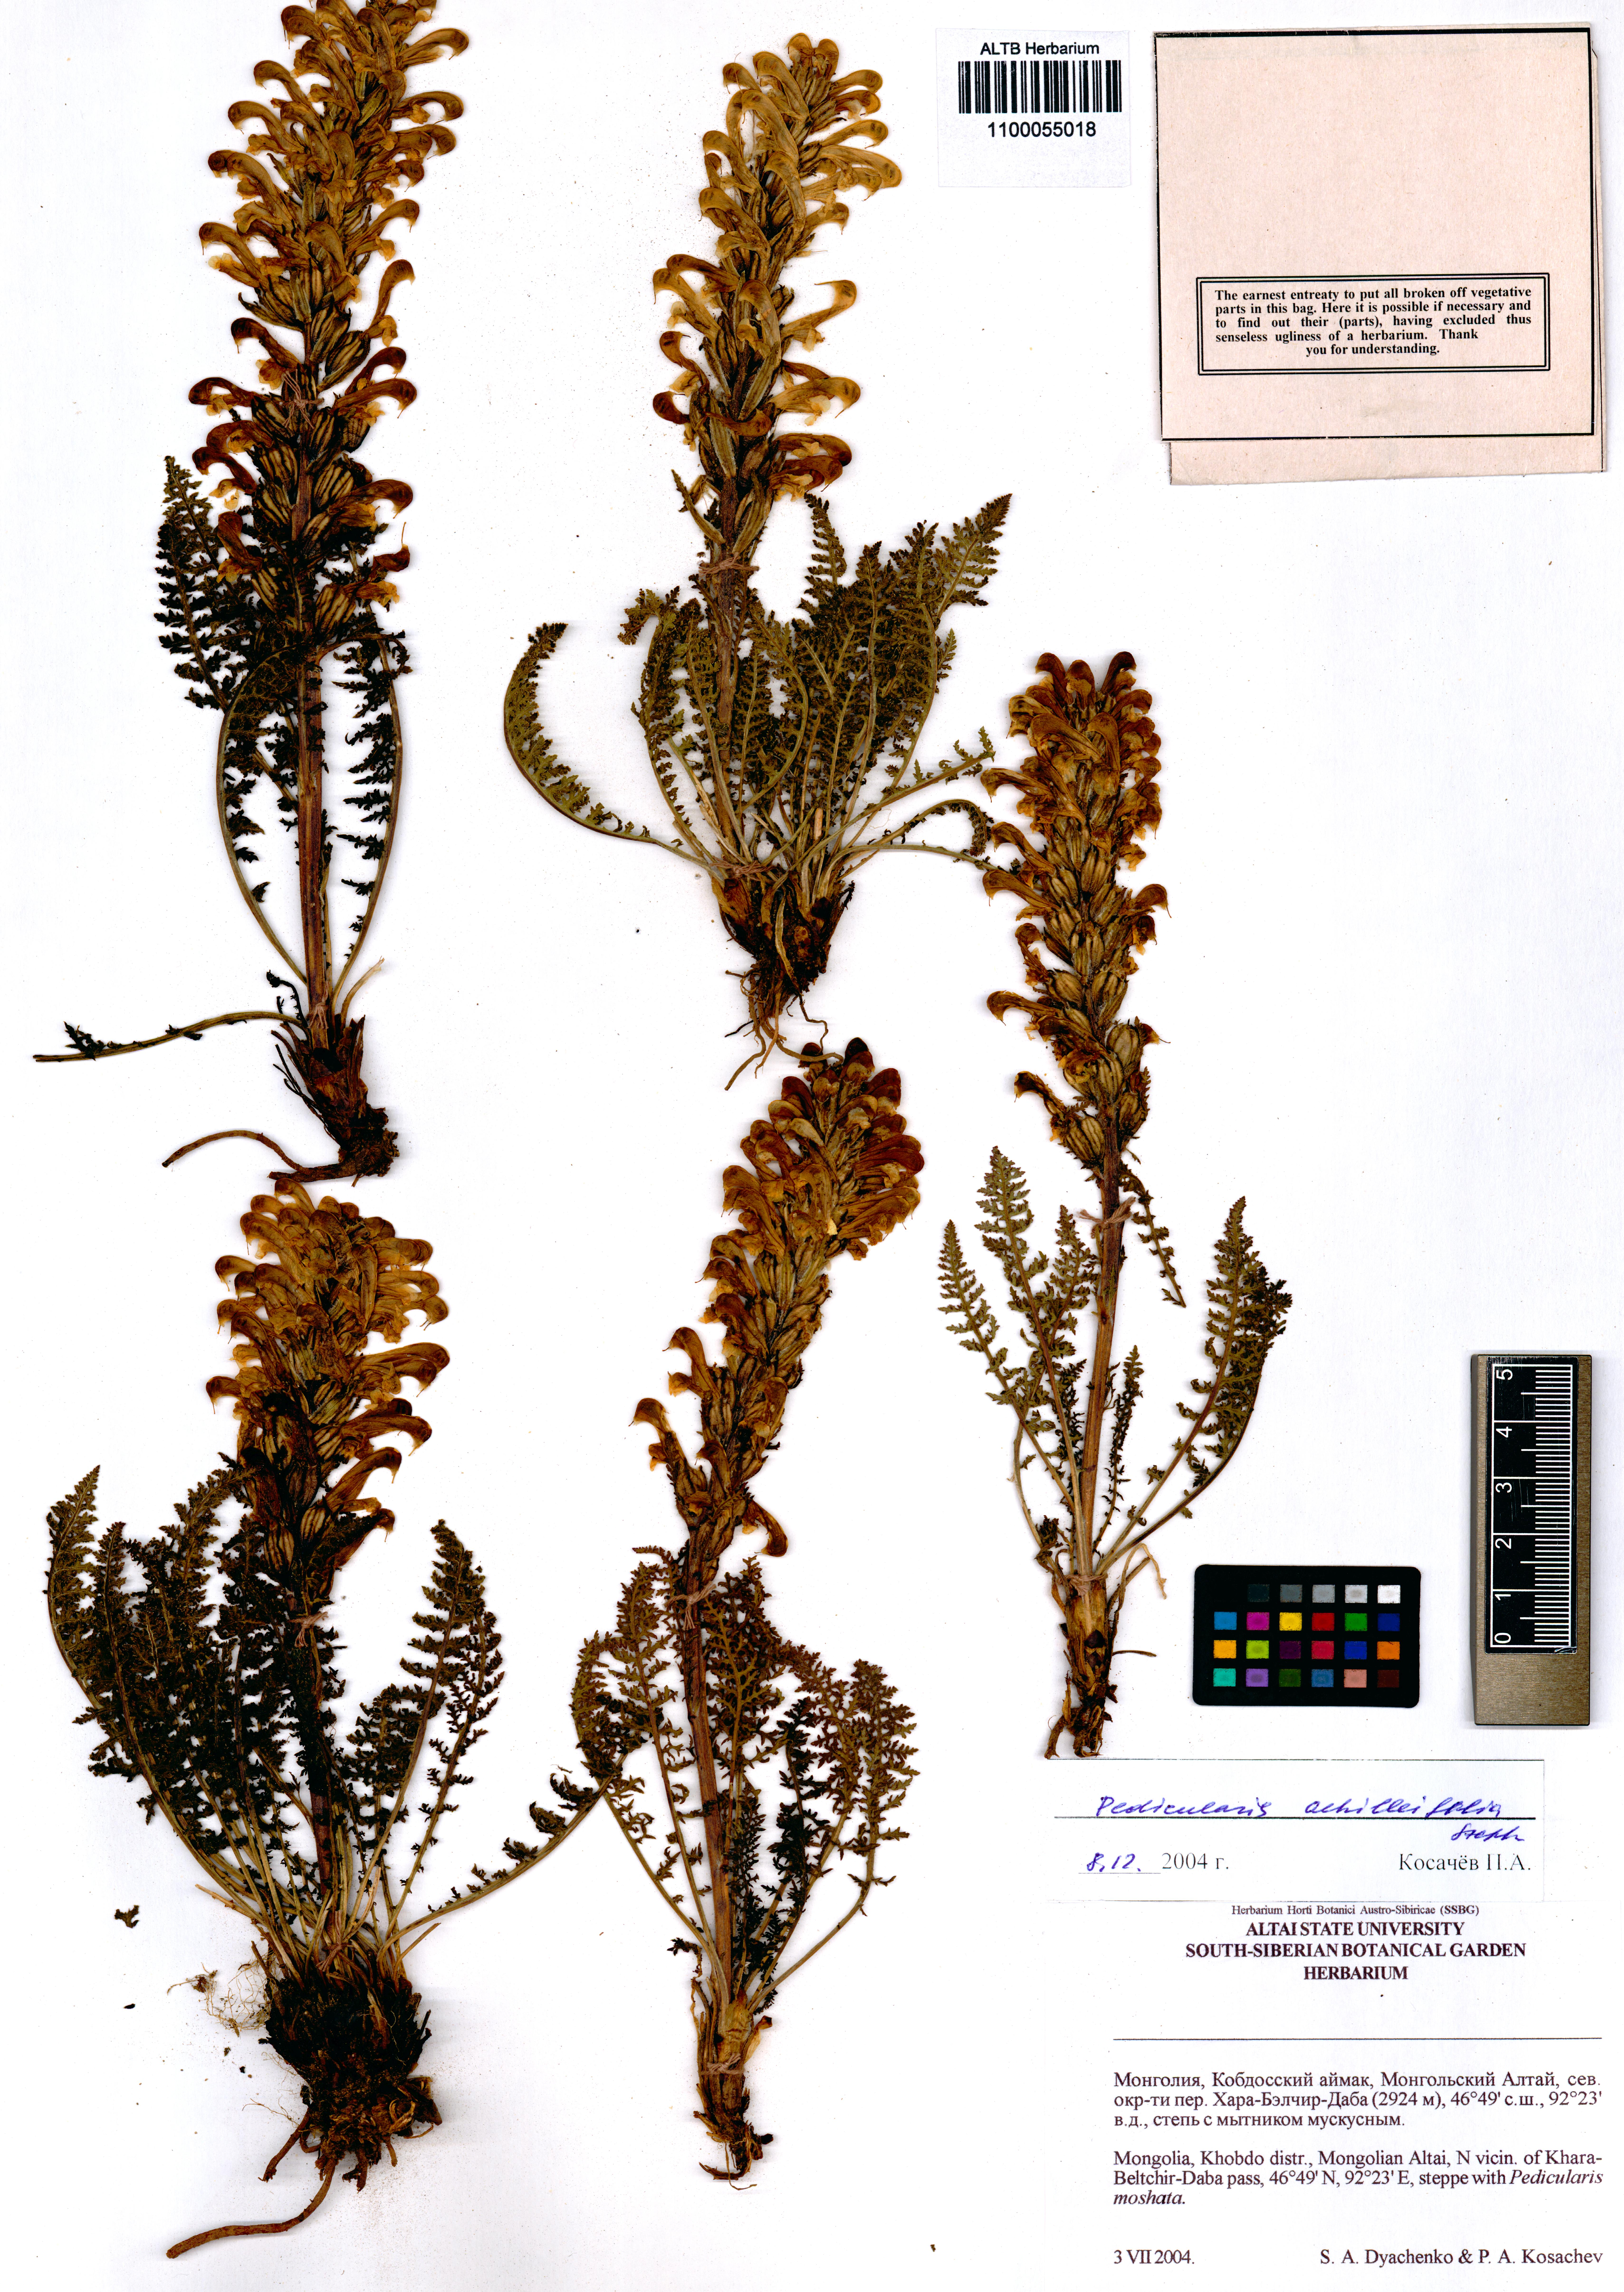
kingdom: Plantae
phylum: Tracheophyta
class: Magnoliopsida
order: Lamiales
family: Orobanchaceae
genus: Pedicularis
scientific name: Pedicularis achilleifolia
